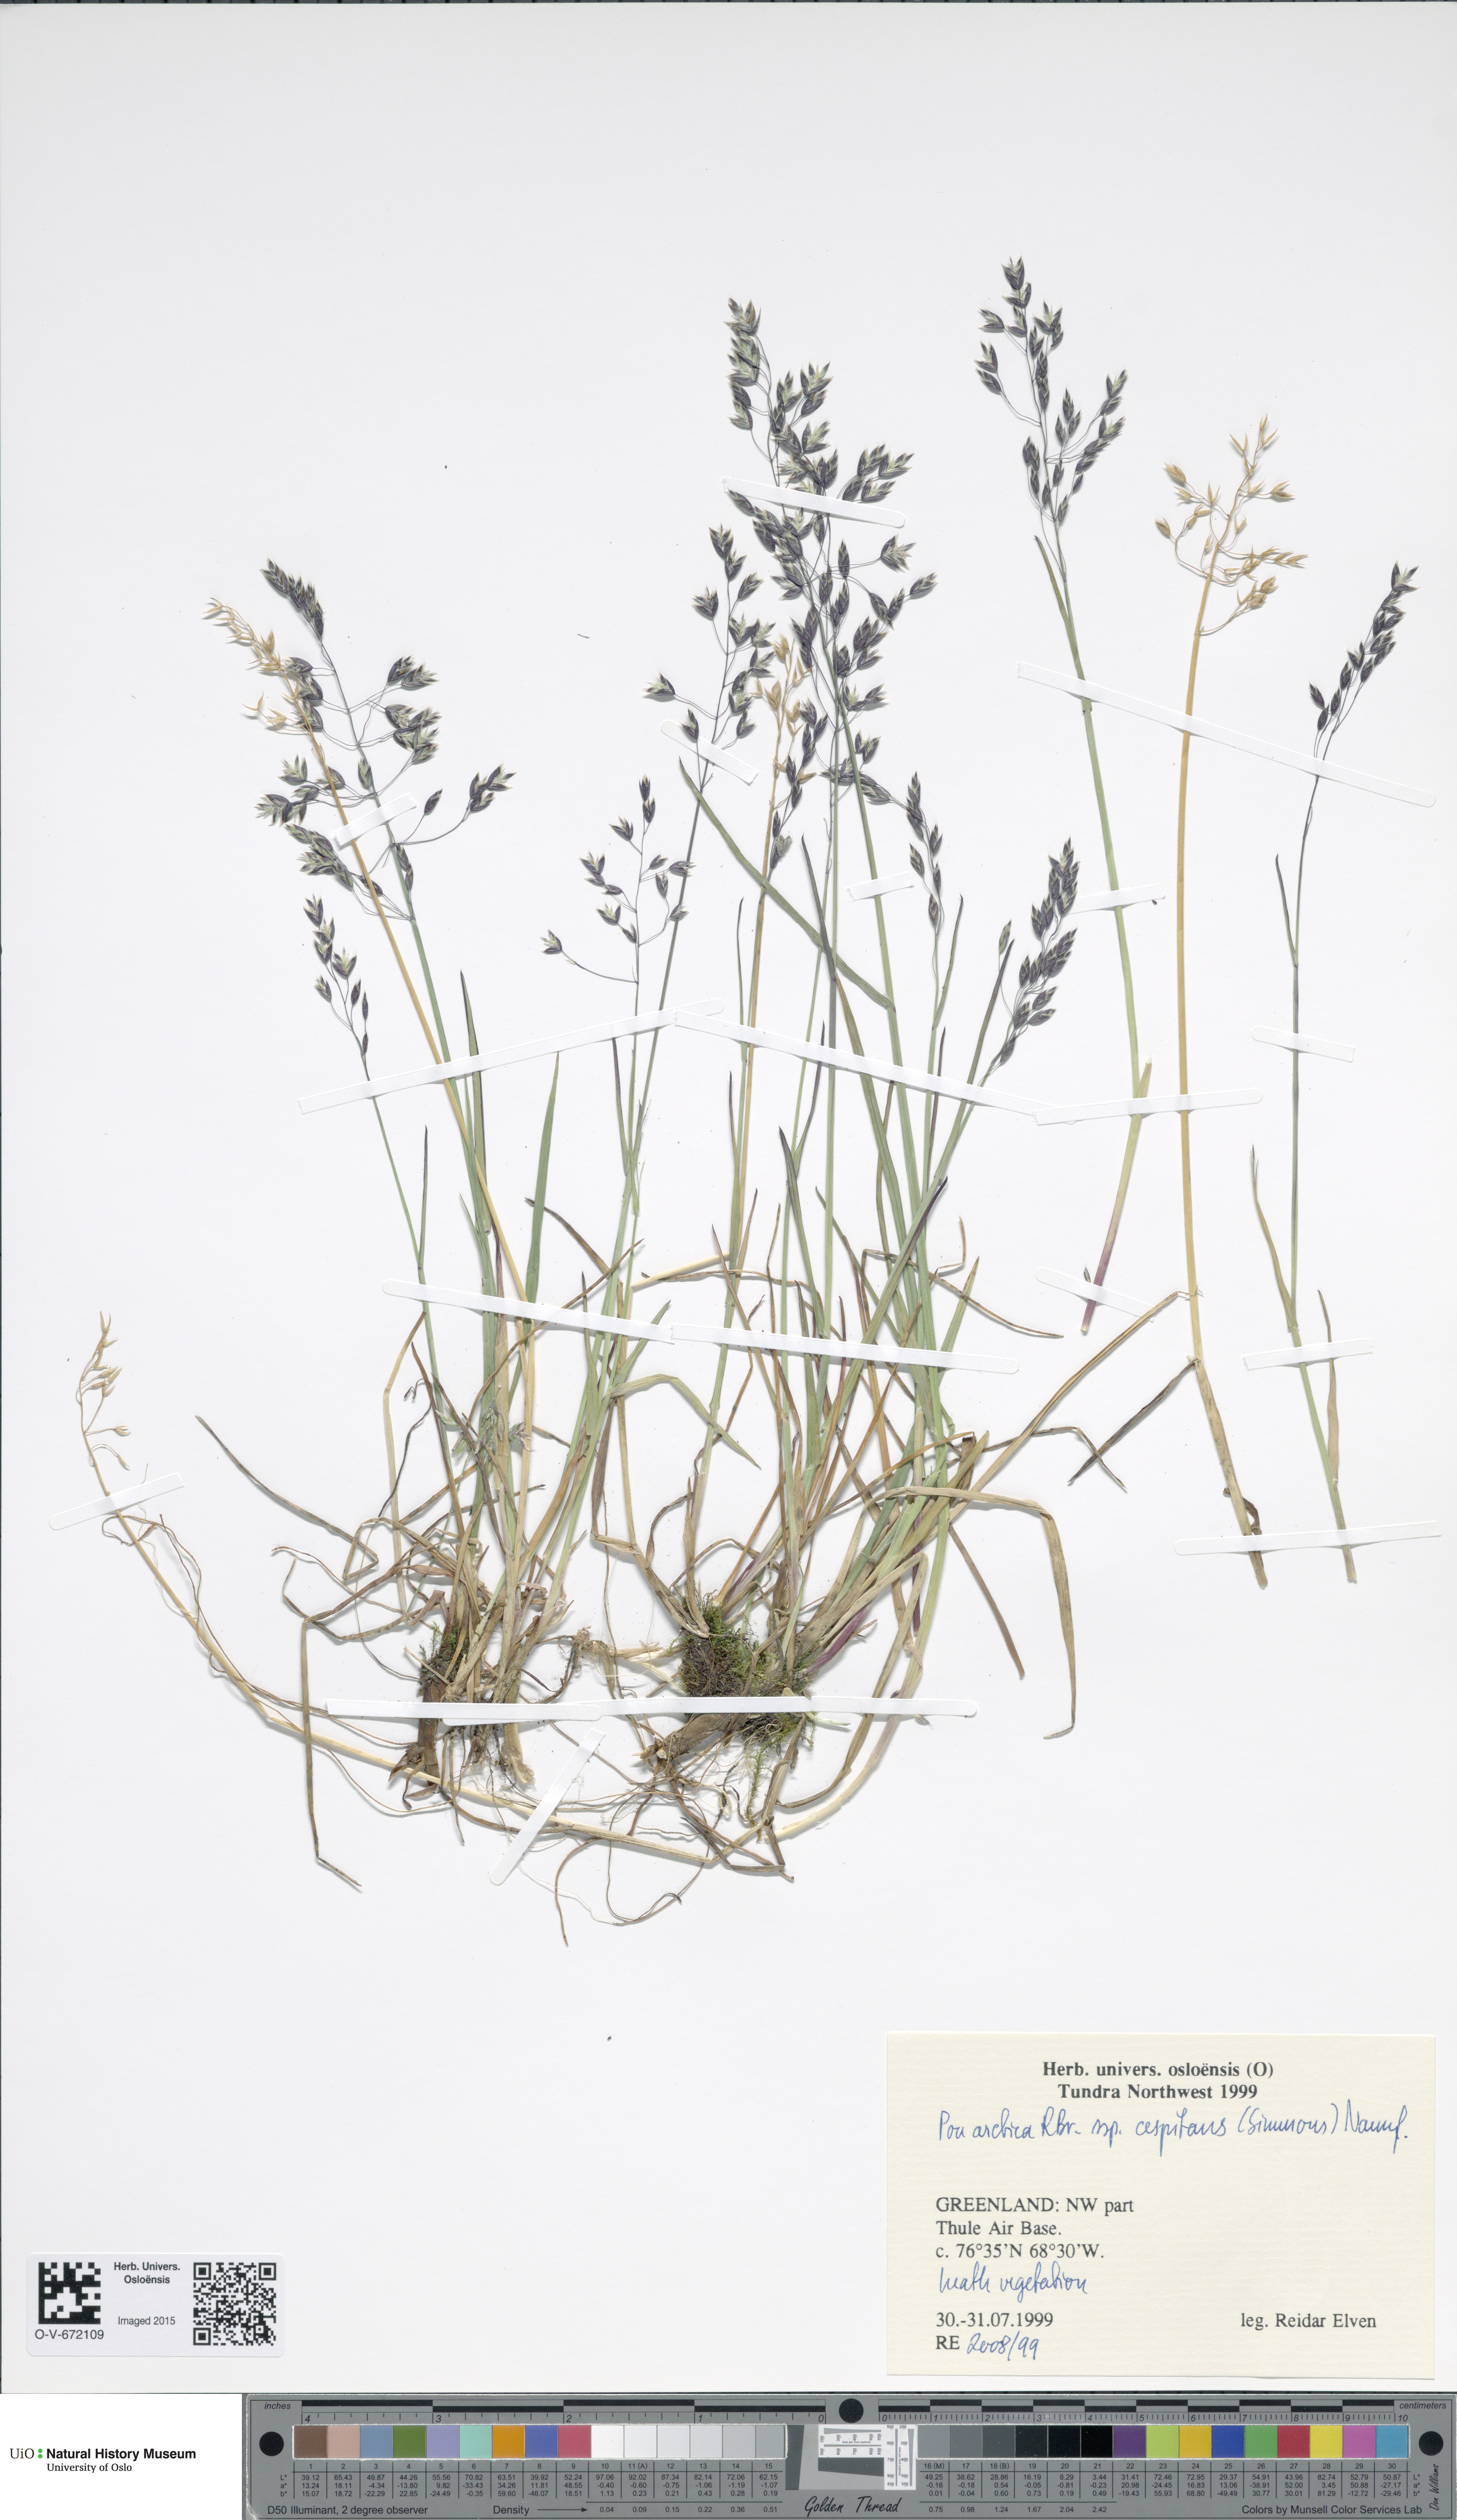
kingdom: Plantae
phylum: Tracheophyta
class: Liliopsida
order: Poales
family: Poaceae
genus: Poa
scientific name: Poa tolmatchewii
